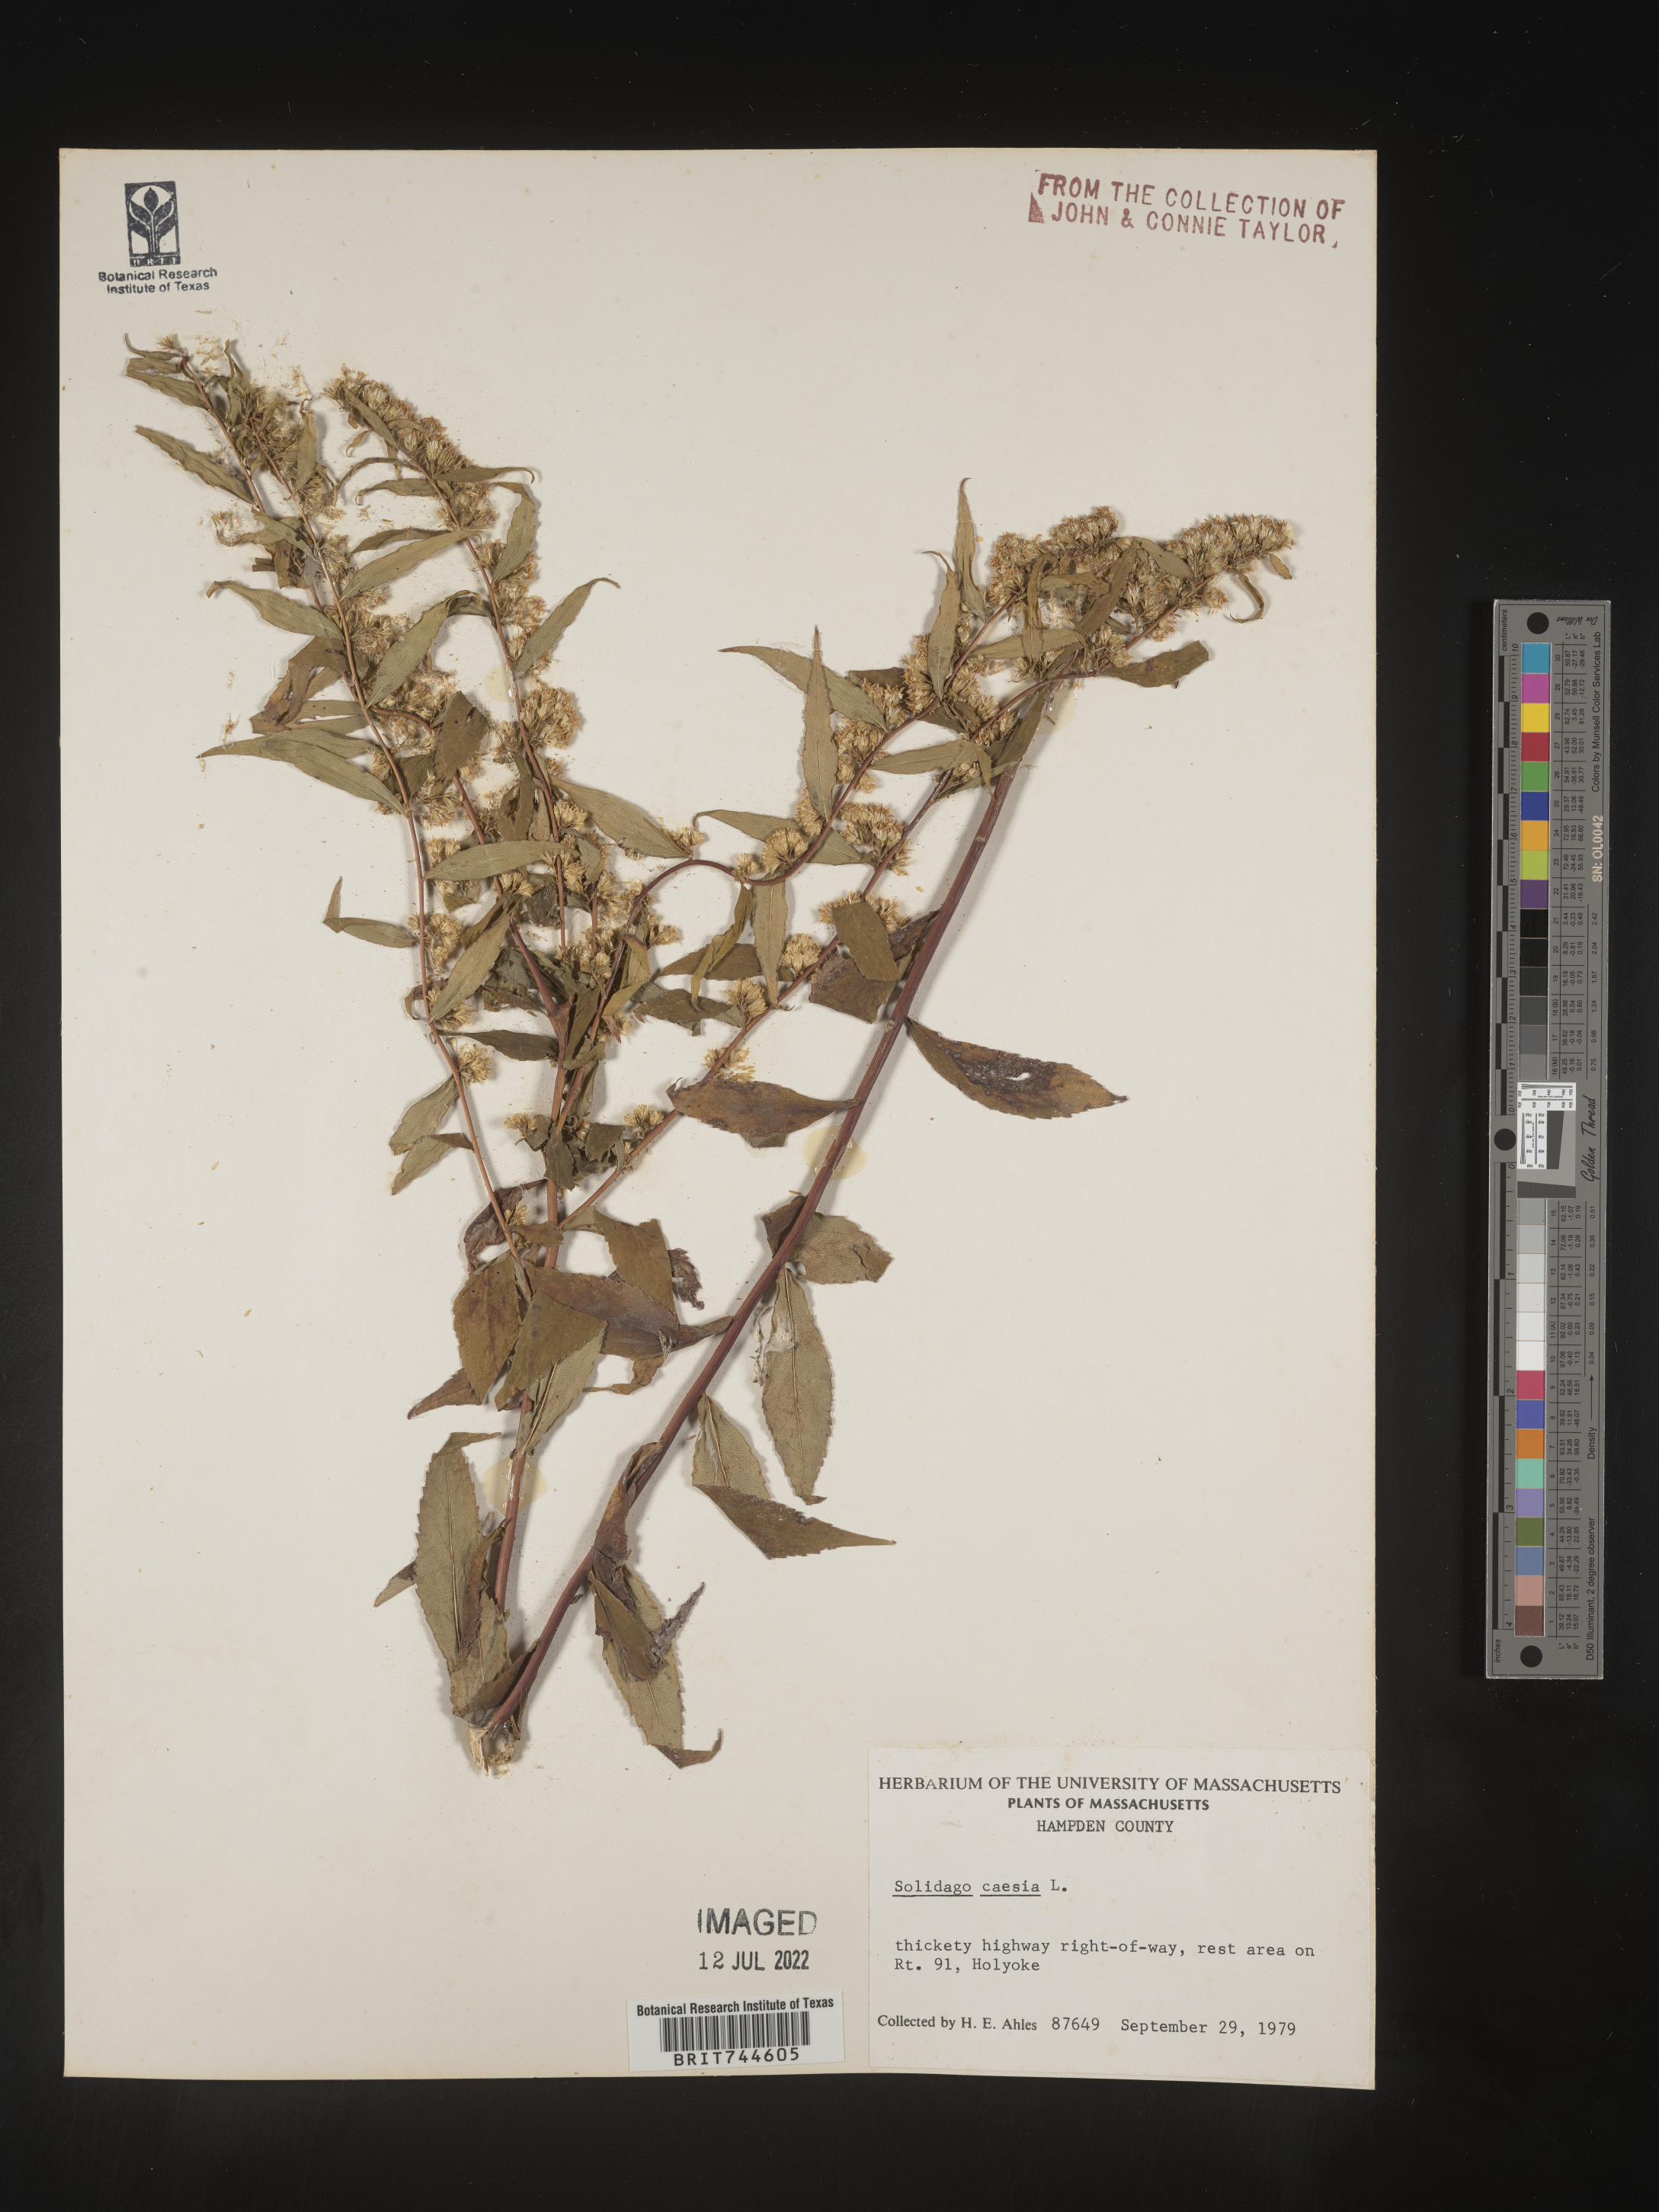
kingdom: Plantae
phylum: Tracheophyta
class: Magnoliopsida
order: Asterales
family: Asteraceae
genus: Solidago
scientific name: Solidago caesia
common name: Woodland goldenrod
